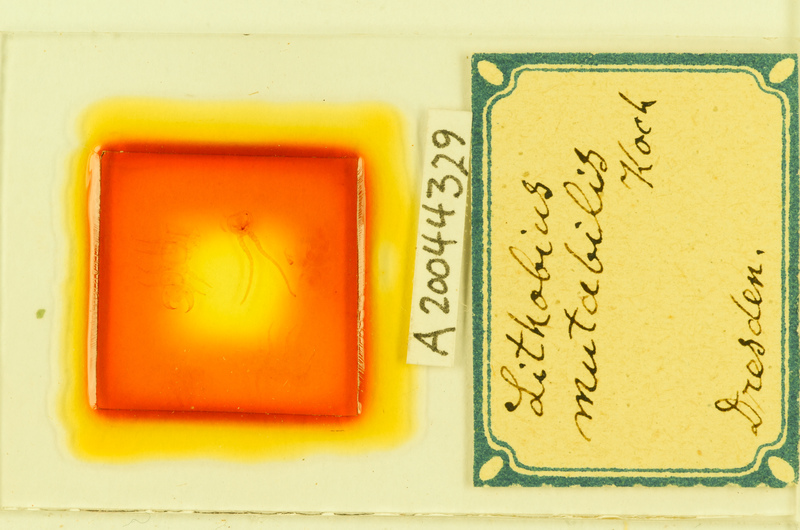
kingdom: Animalia
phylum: Arthropoda
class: Chilopoda
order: Lithobiomorpha
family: Lithobiidae
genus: Lithobius
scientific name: Lithobius mutabilis
